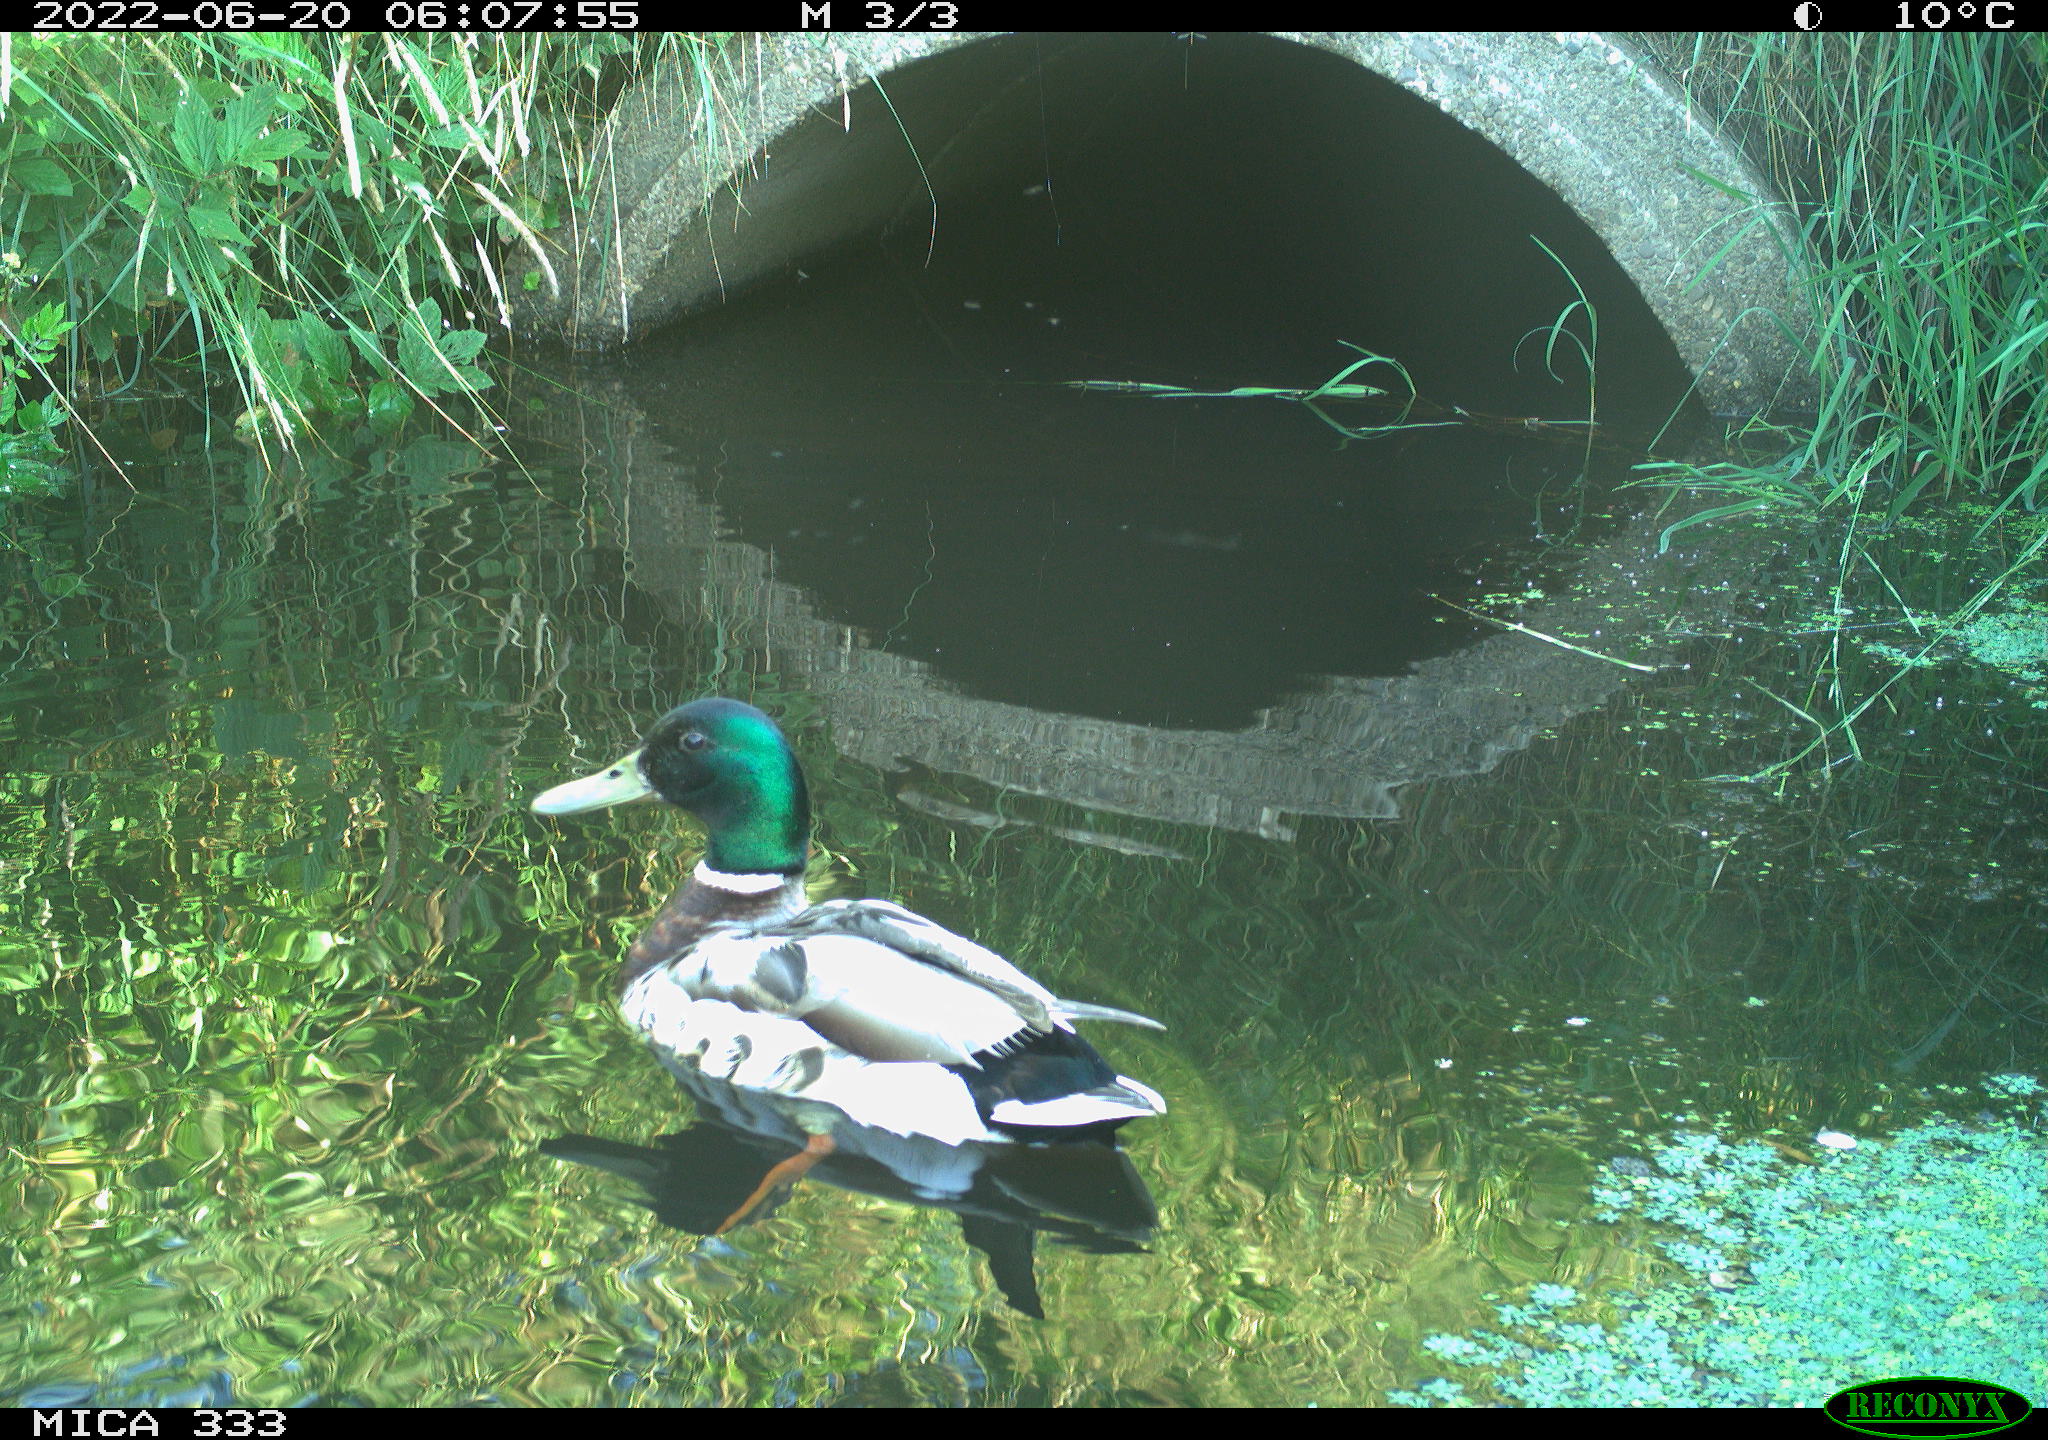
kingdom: Animalia
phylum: Chordata
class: Aves
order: Anseriformes
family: Anatidae
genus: Anas
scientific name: Anas platyrhynchos
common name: Mallard
